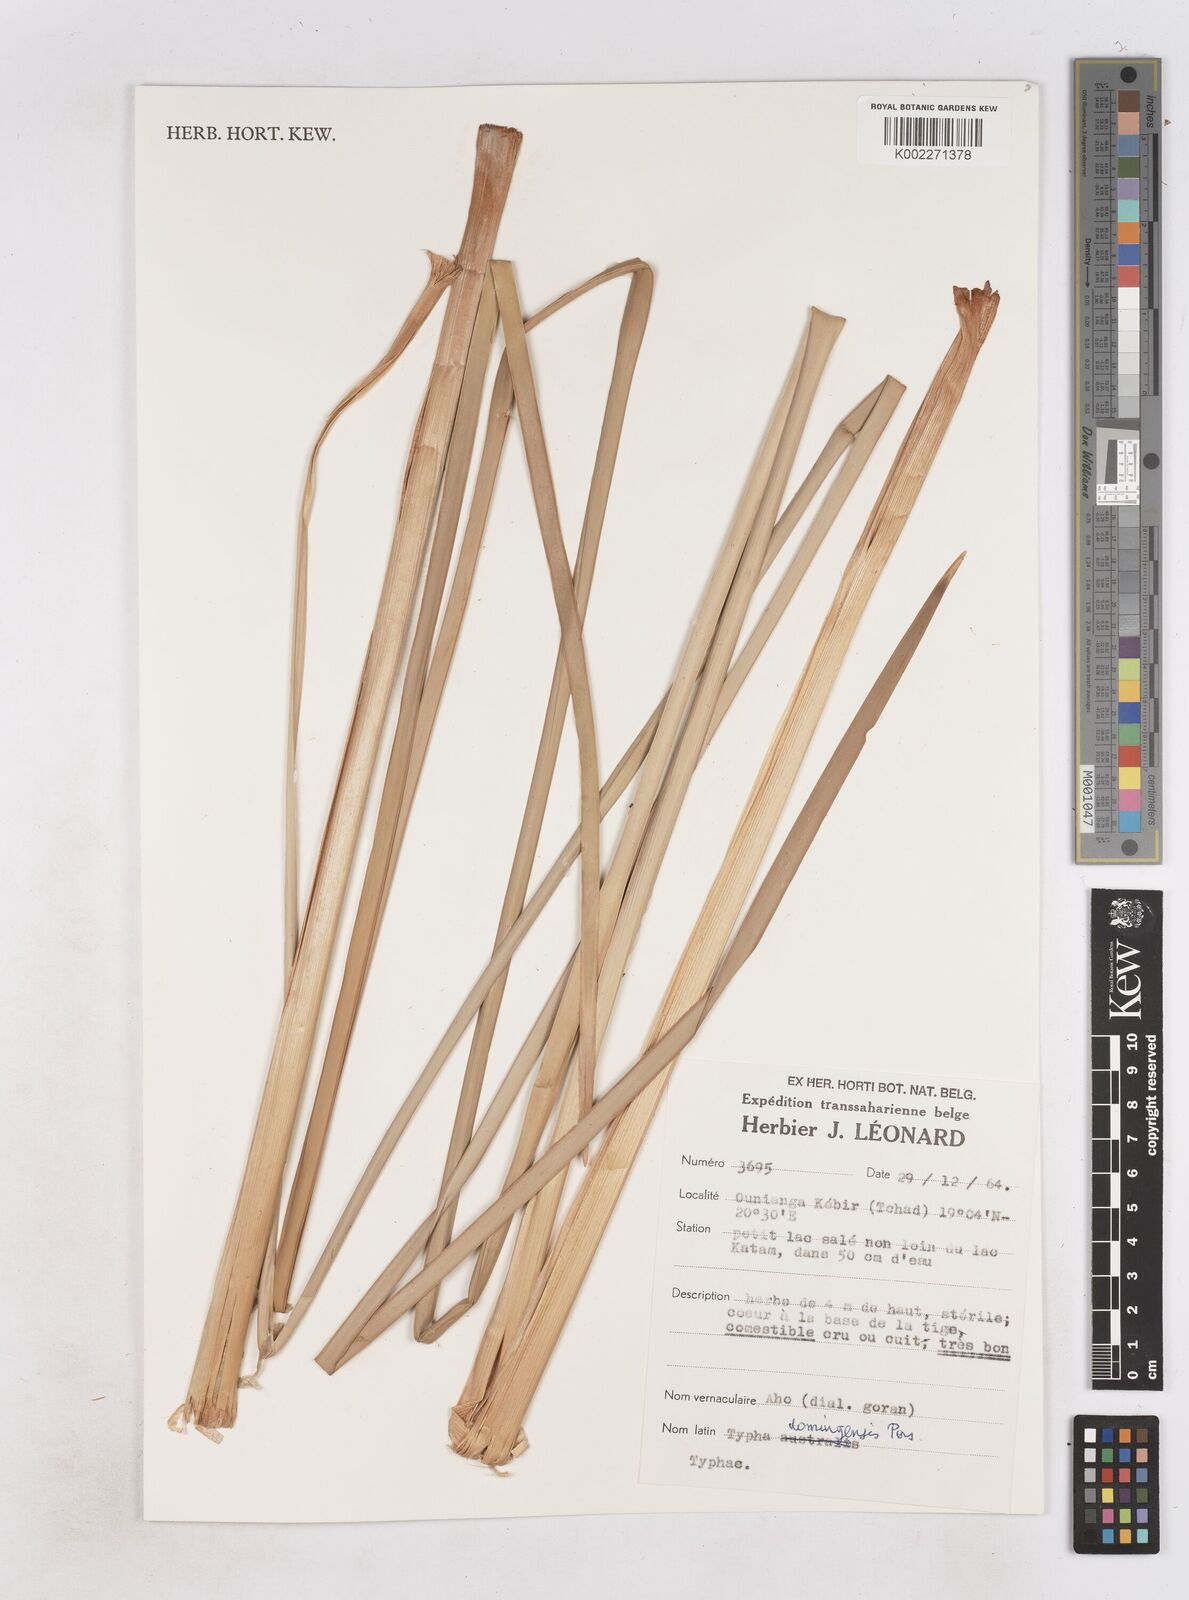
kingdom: Plantae
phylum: Tracheophyta
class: Liliopsida
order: Poales
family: Typhaceae
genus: Typha
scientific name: Typha domingensis
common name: Southern cattail
